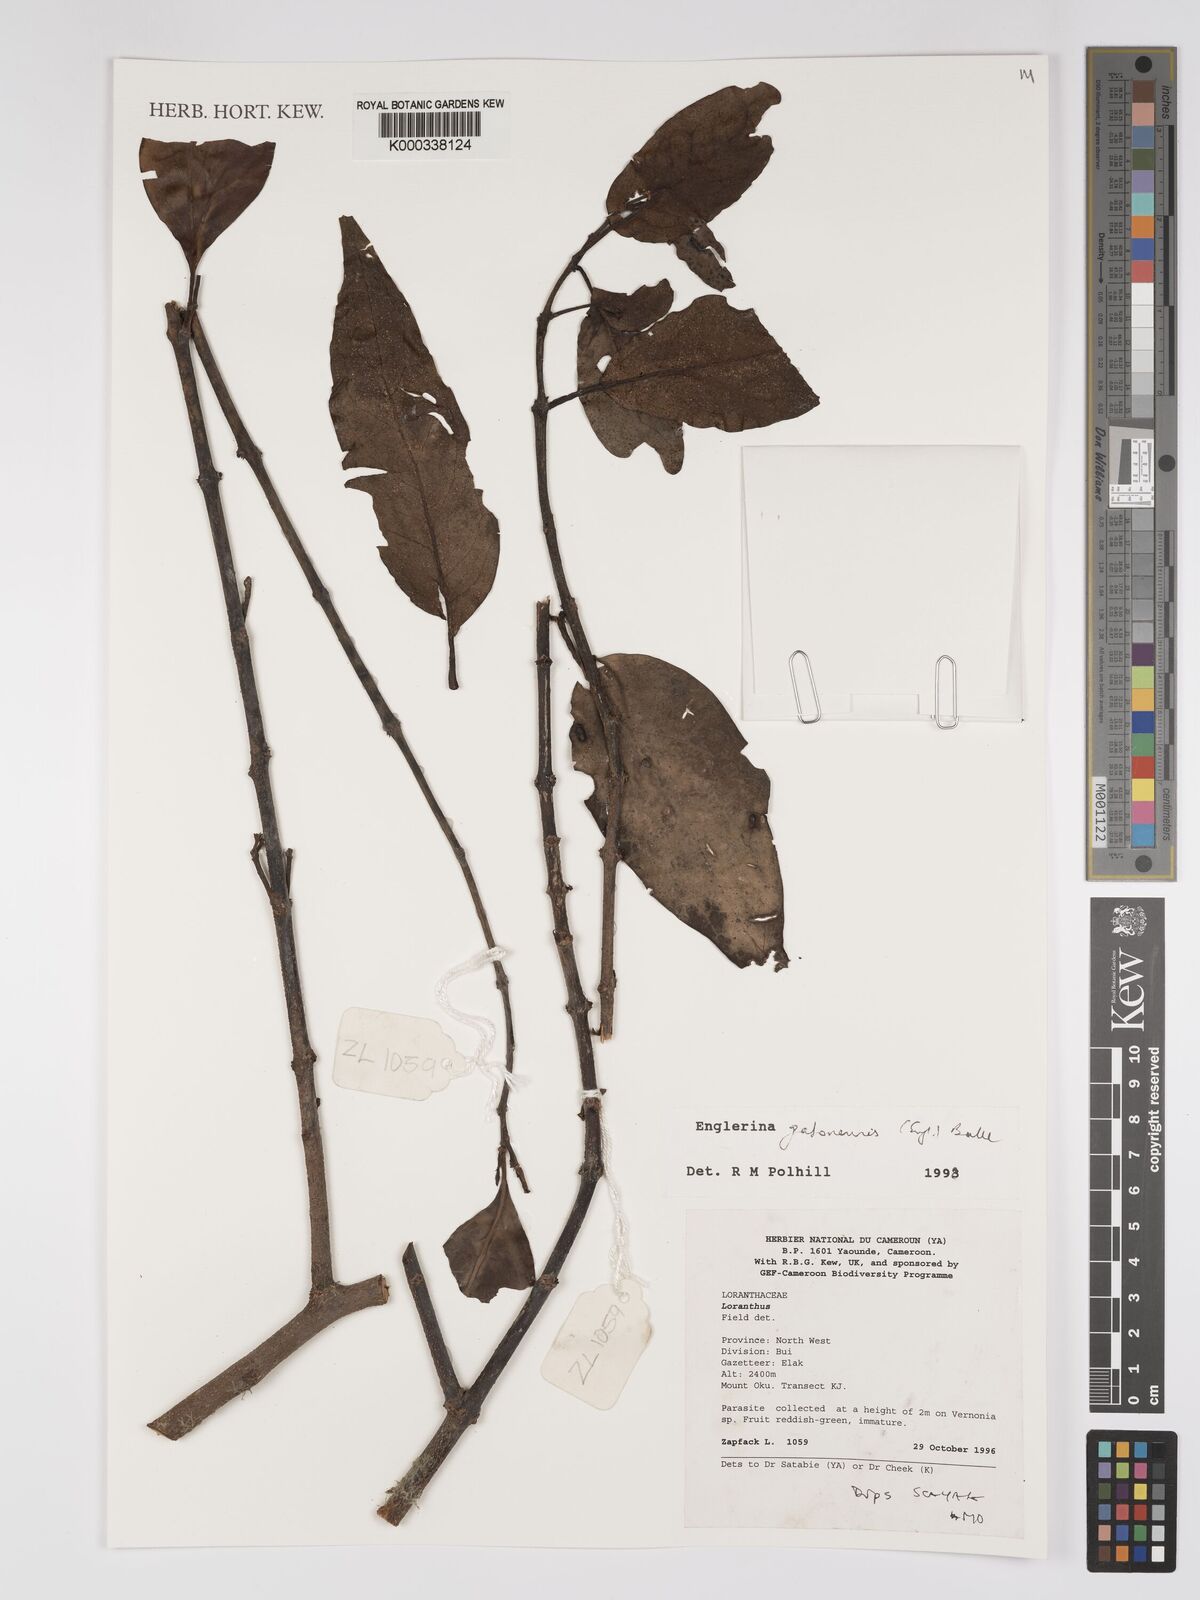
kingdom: Plantae
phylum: Tracheophyta
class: Magnoliopsida
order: Santalales
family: Loranthaceae
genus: Englerina
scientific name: Englerina gabonensis
